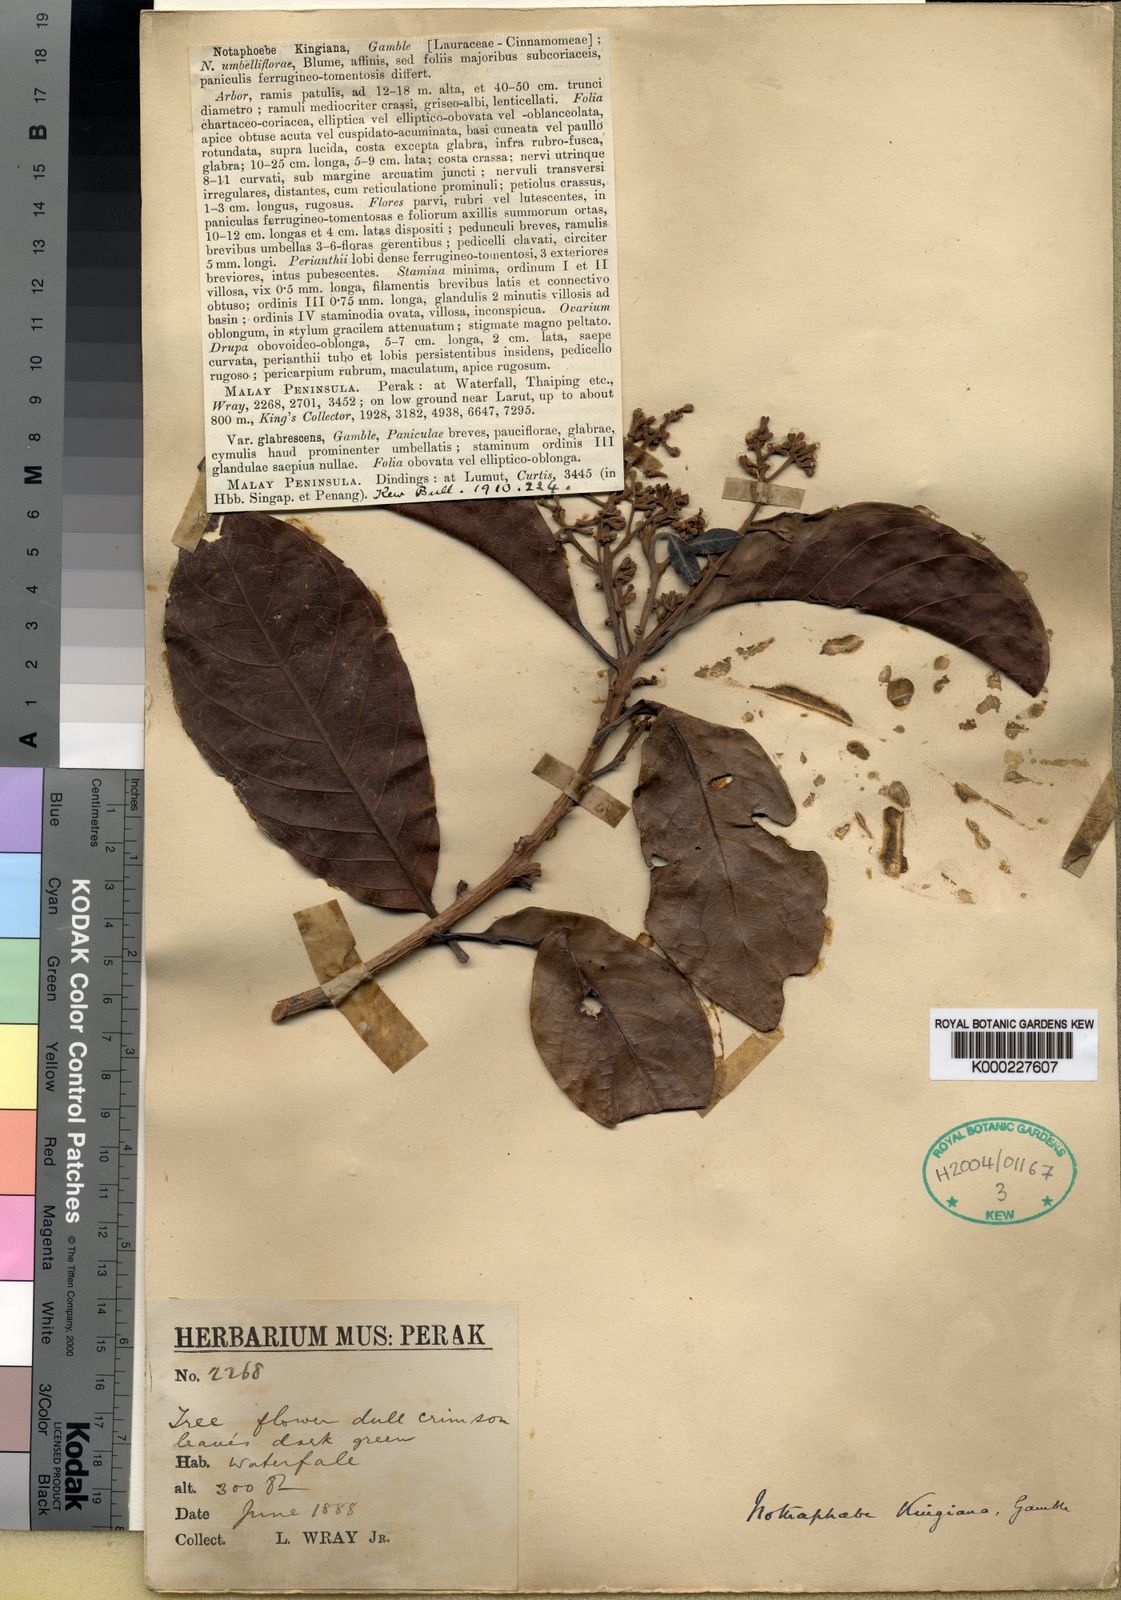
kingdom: Plantae
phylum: Tracheophyta
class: Magnoliopsida
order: Laurales
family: Lauraceae
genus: Nothaphoebe
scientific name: Nothaphoebe
